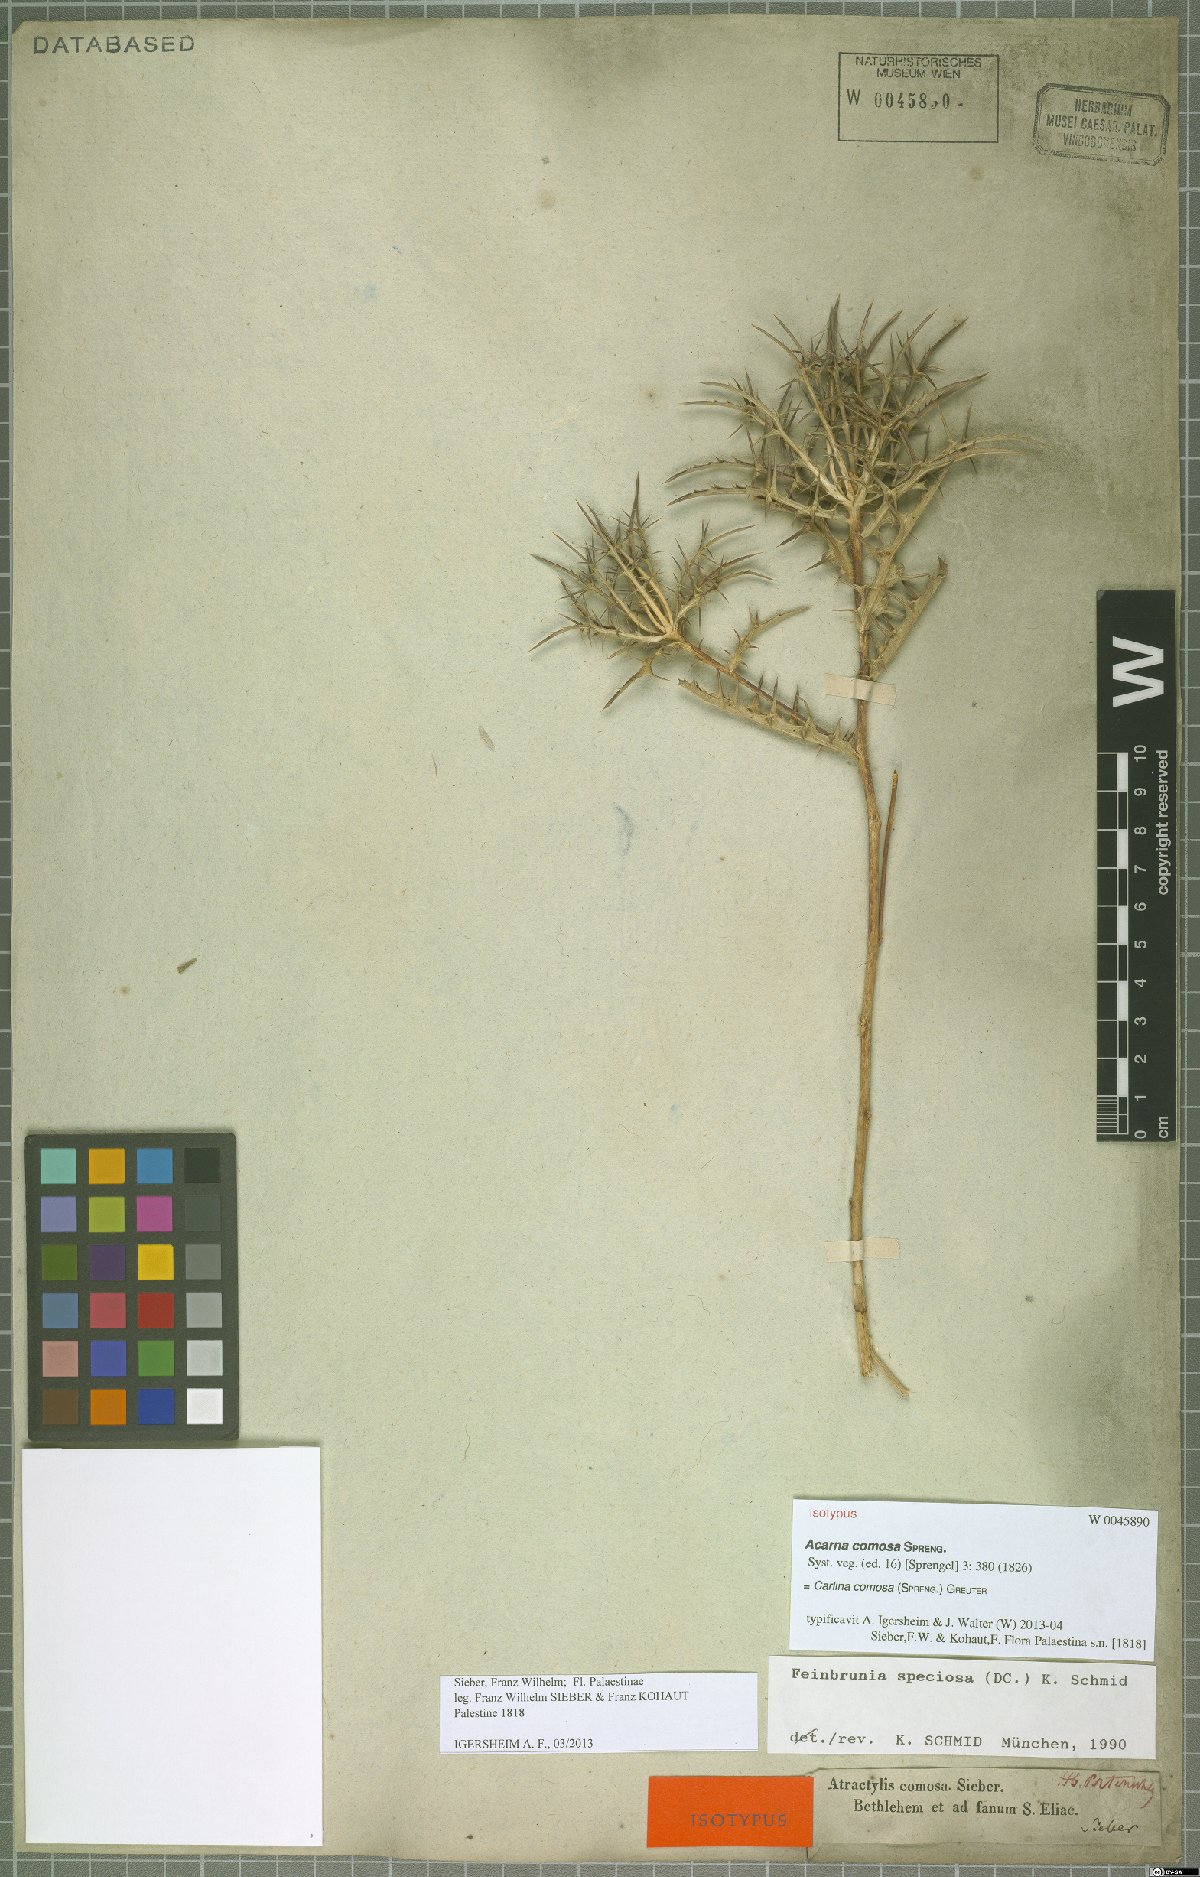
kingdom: Plantae
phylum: Tracheophyta
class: Magnoliopsida
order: Asterales
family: Asteraceae
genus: Chamaeleon
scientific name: Chamaeleon comosus
